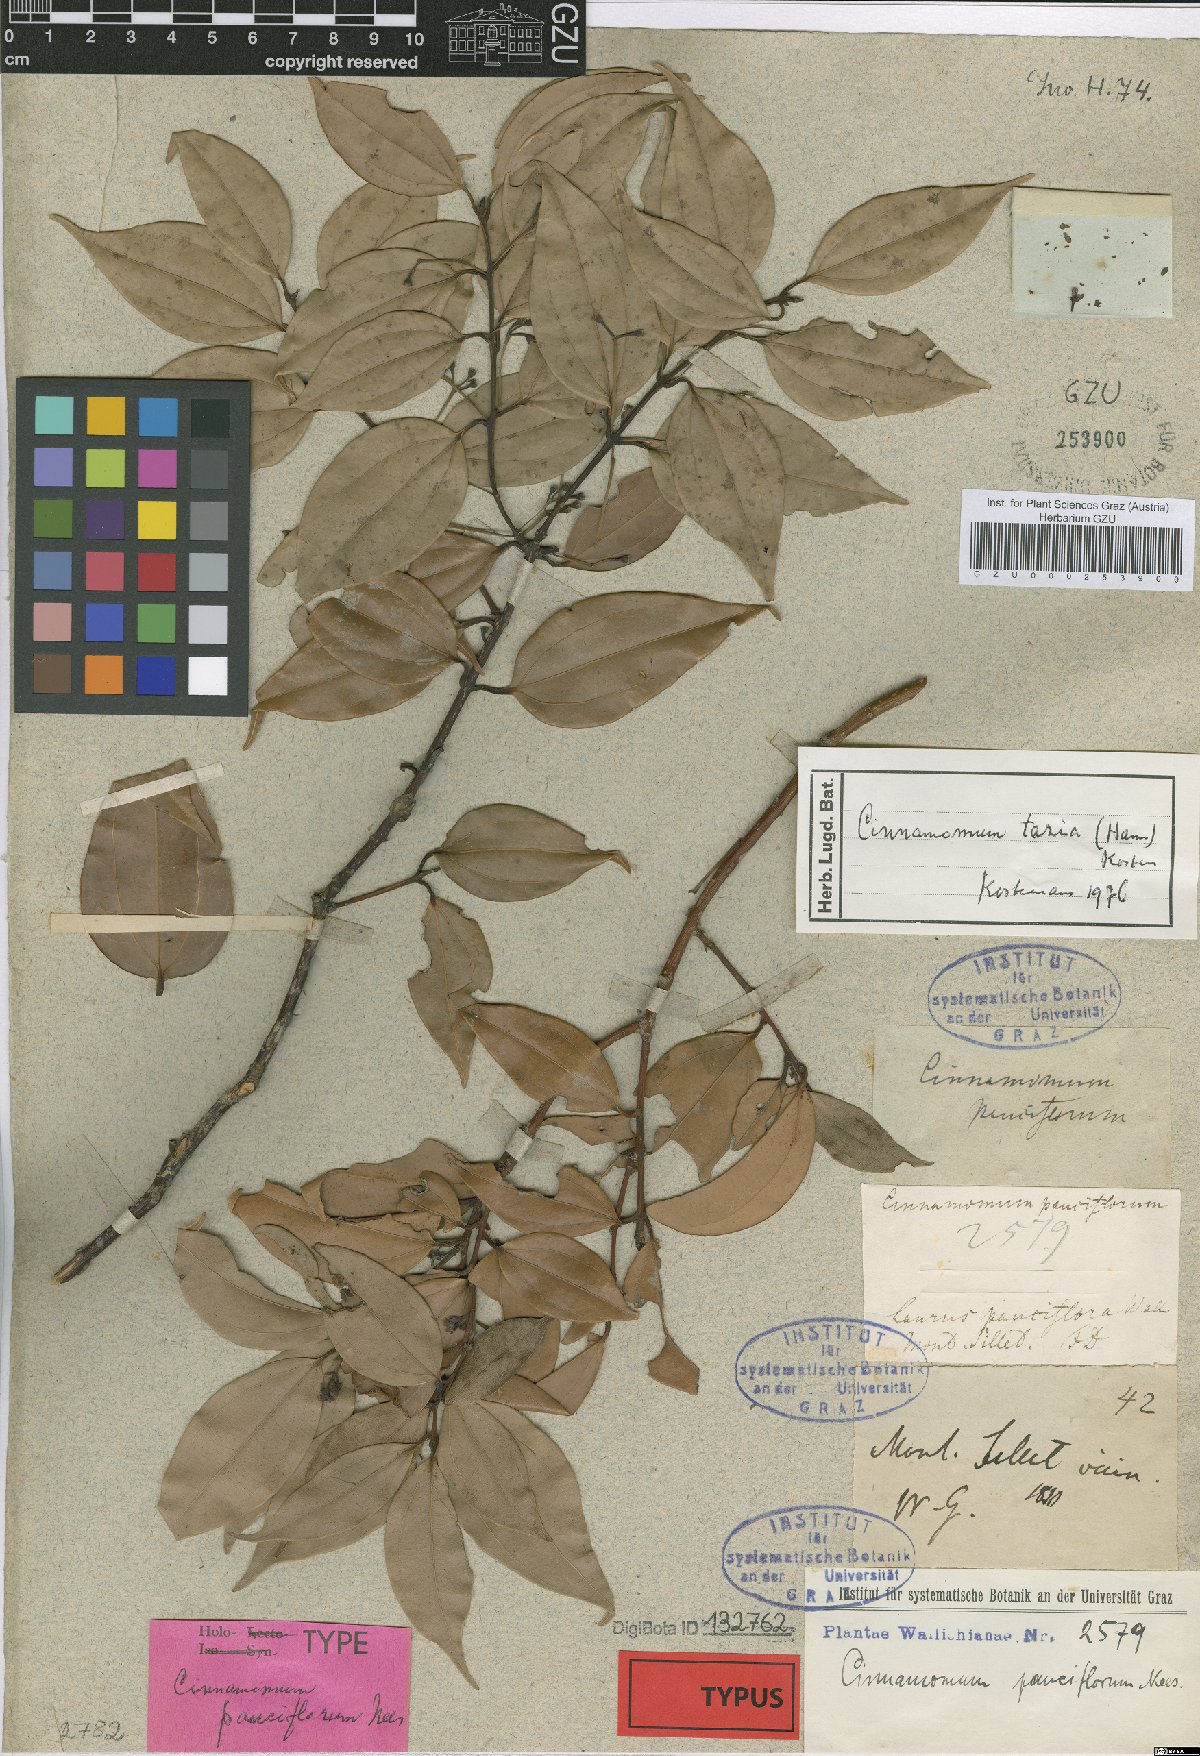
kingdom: Plantae
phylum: Tracheophyta
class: Magnoliopsida
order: Laurales
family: Lauraceae
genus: Cinnamomum
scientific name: Cinnamomum tazia
